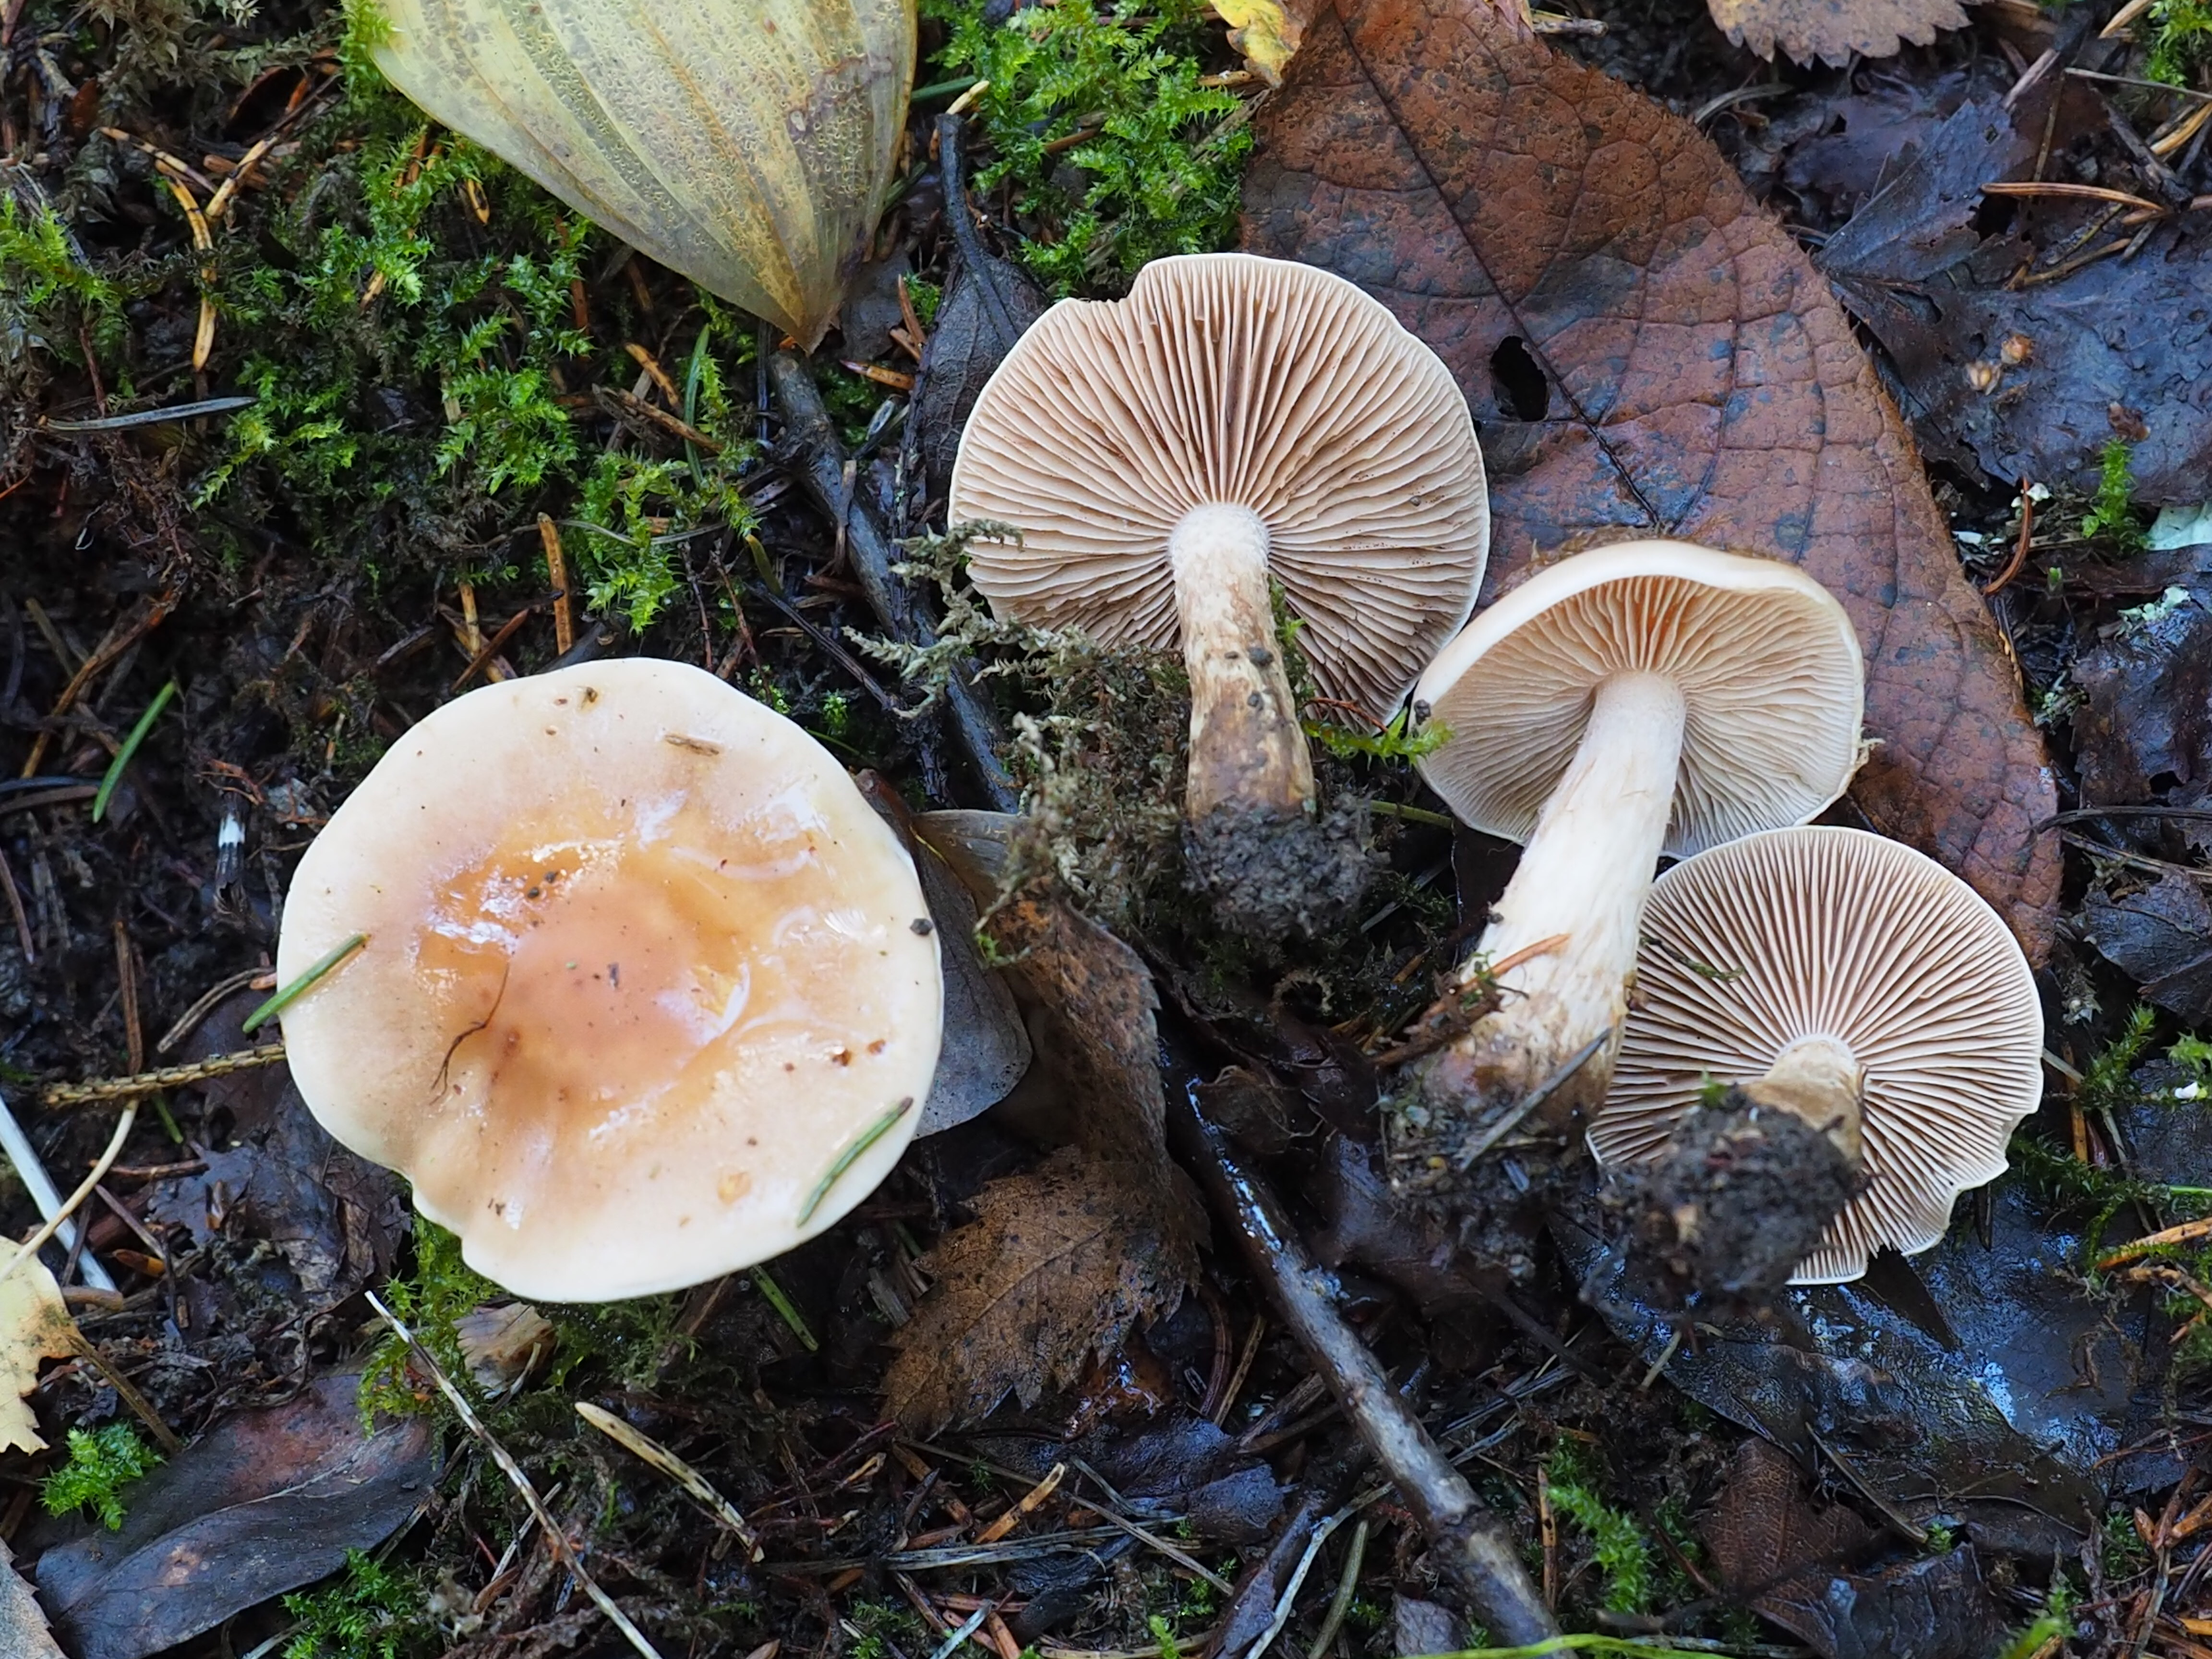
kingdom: Fungi
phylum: Basidiomycota
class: Agaricomycetes
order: Agaricales
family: Hymenogastraceae
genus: Hebeloma
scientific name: Hebeloma
